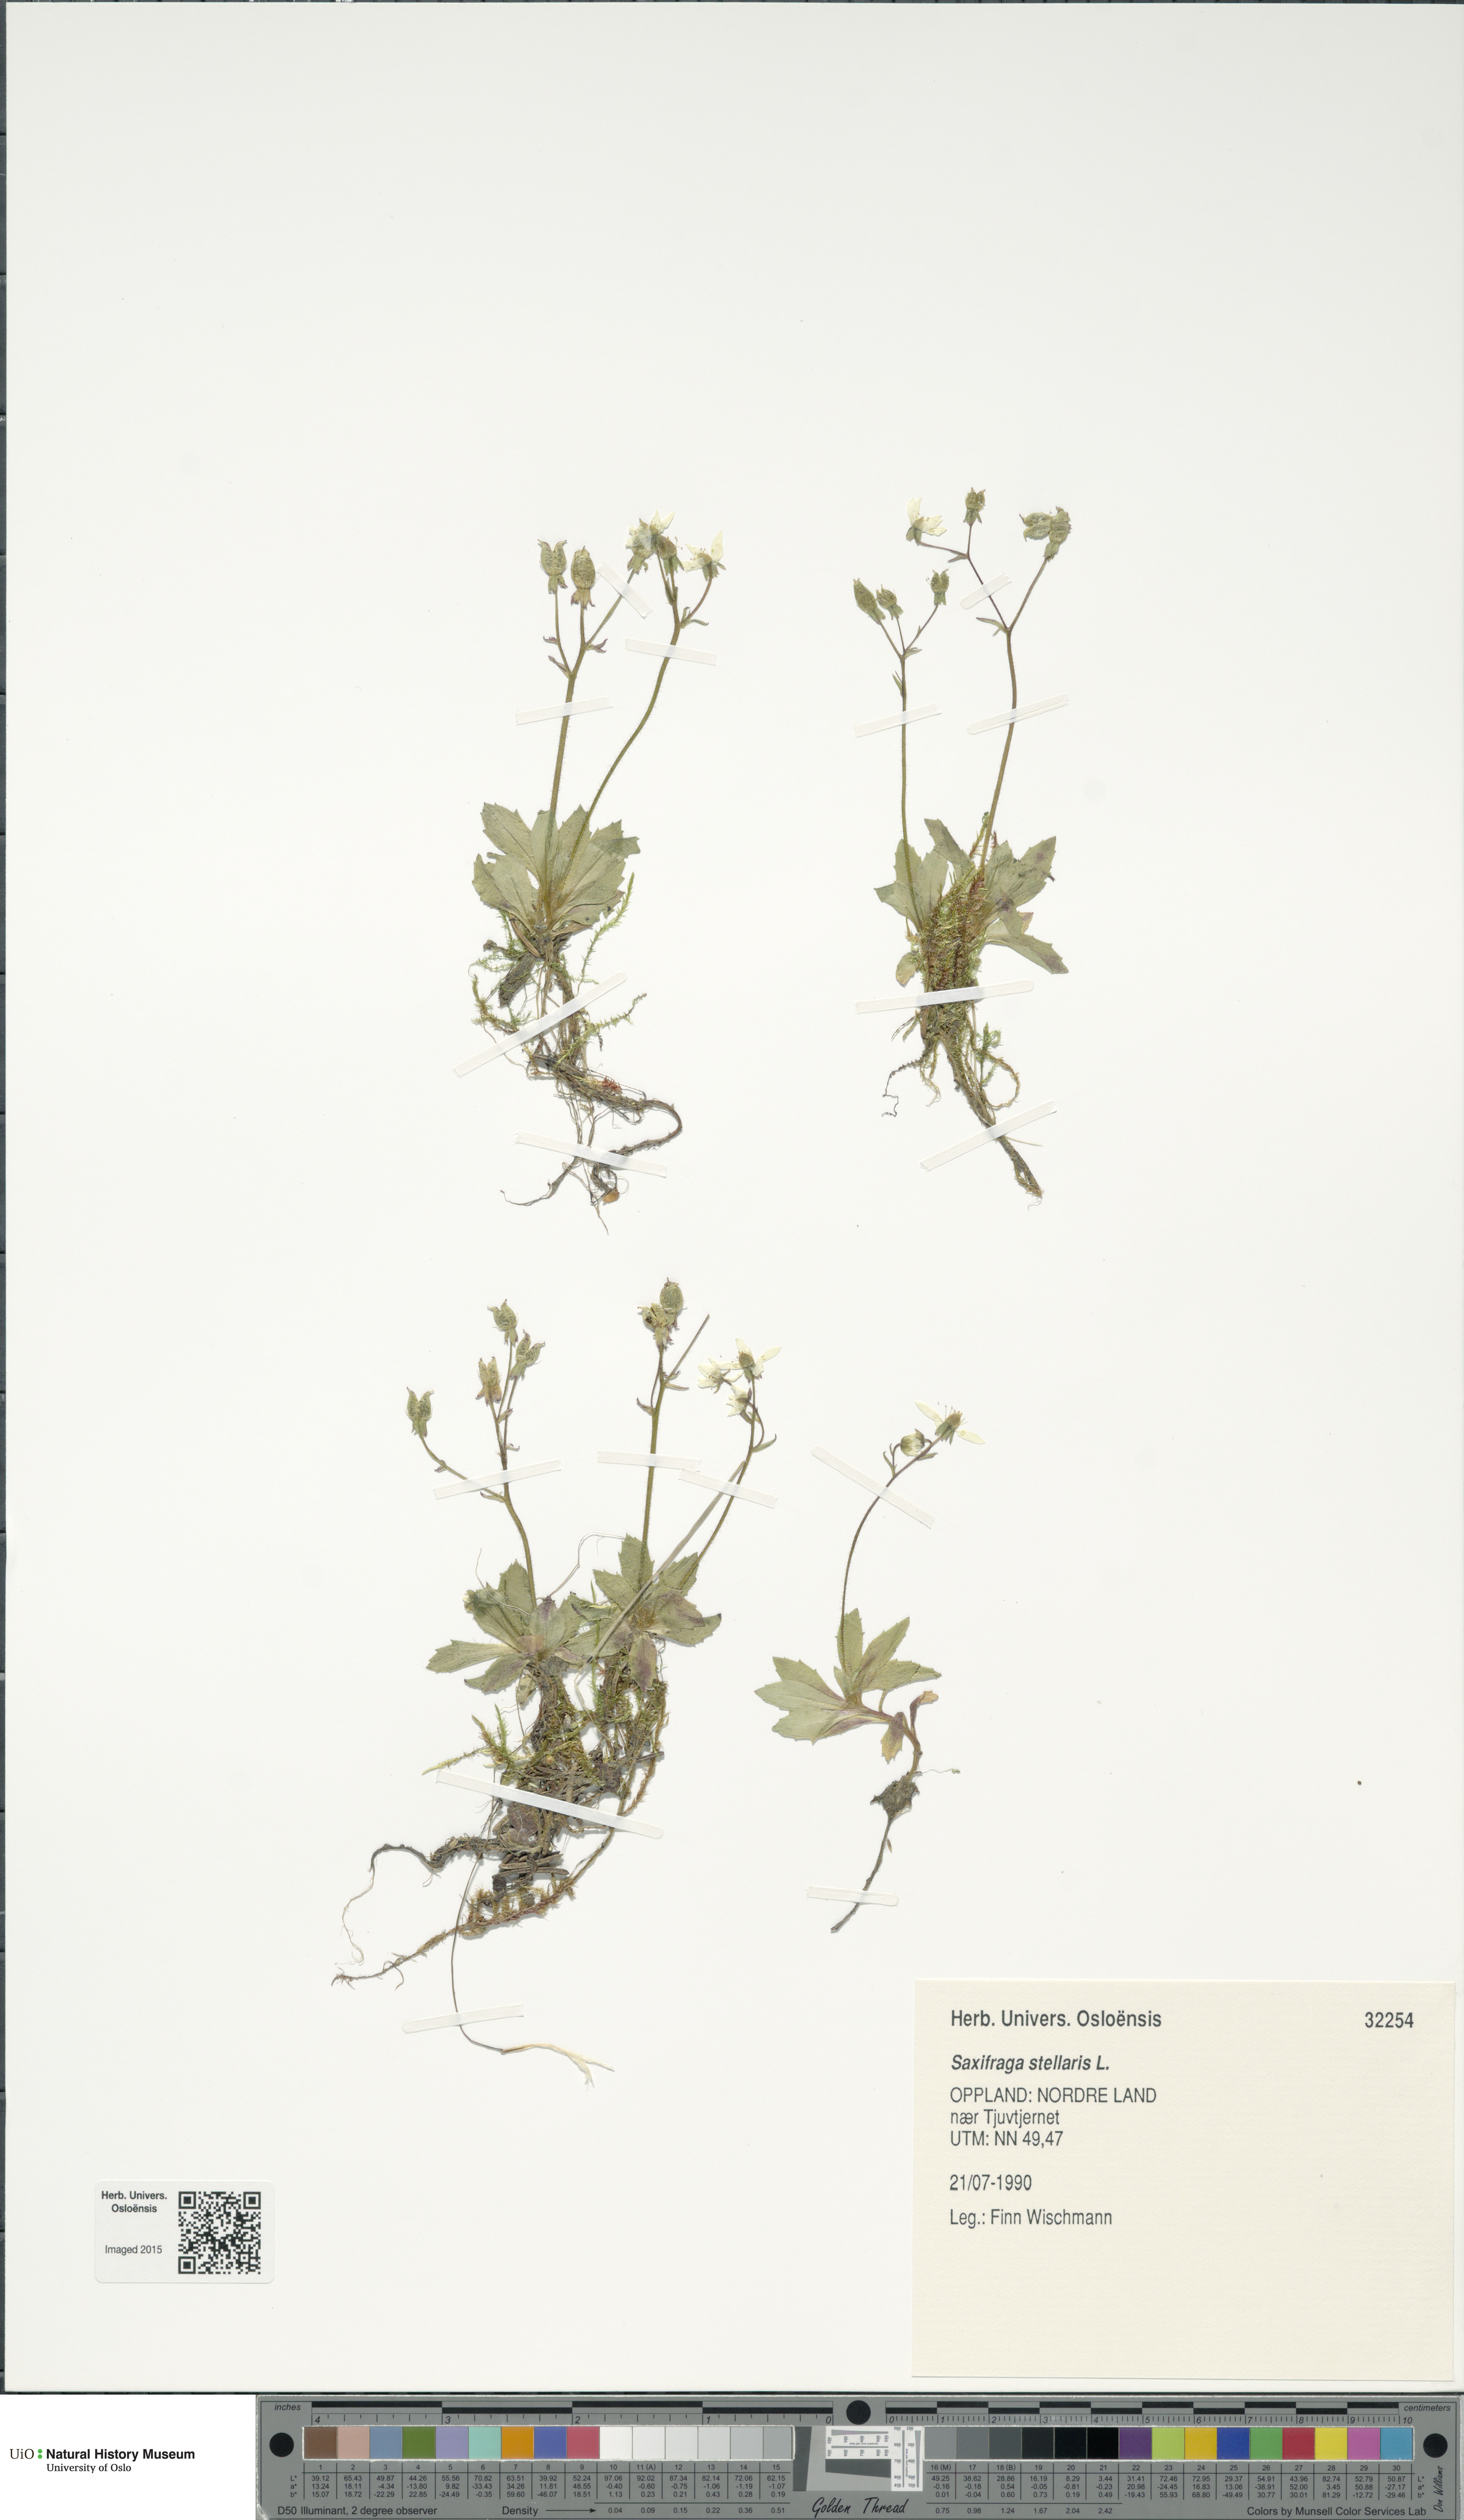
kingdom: Plantae
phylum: Tracheophyta
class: Magnoliopsida
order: Saxifragales
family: Saxifragaceae
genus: Micranthes
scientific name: Micranthes stellaris
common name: Starry saxifrage
